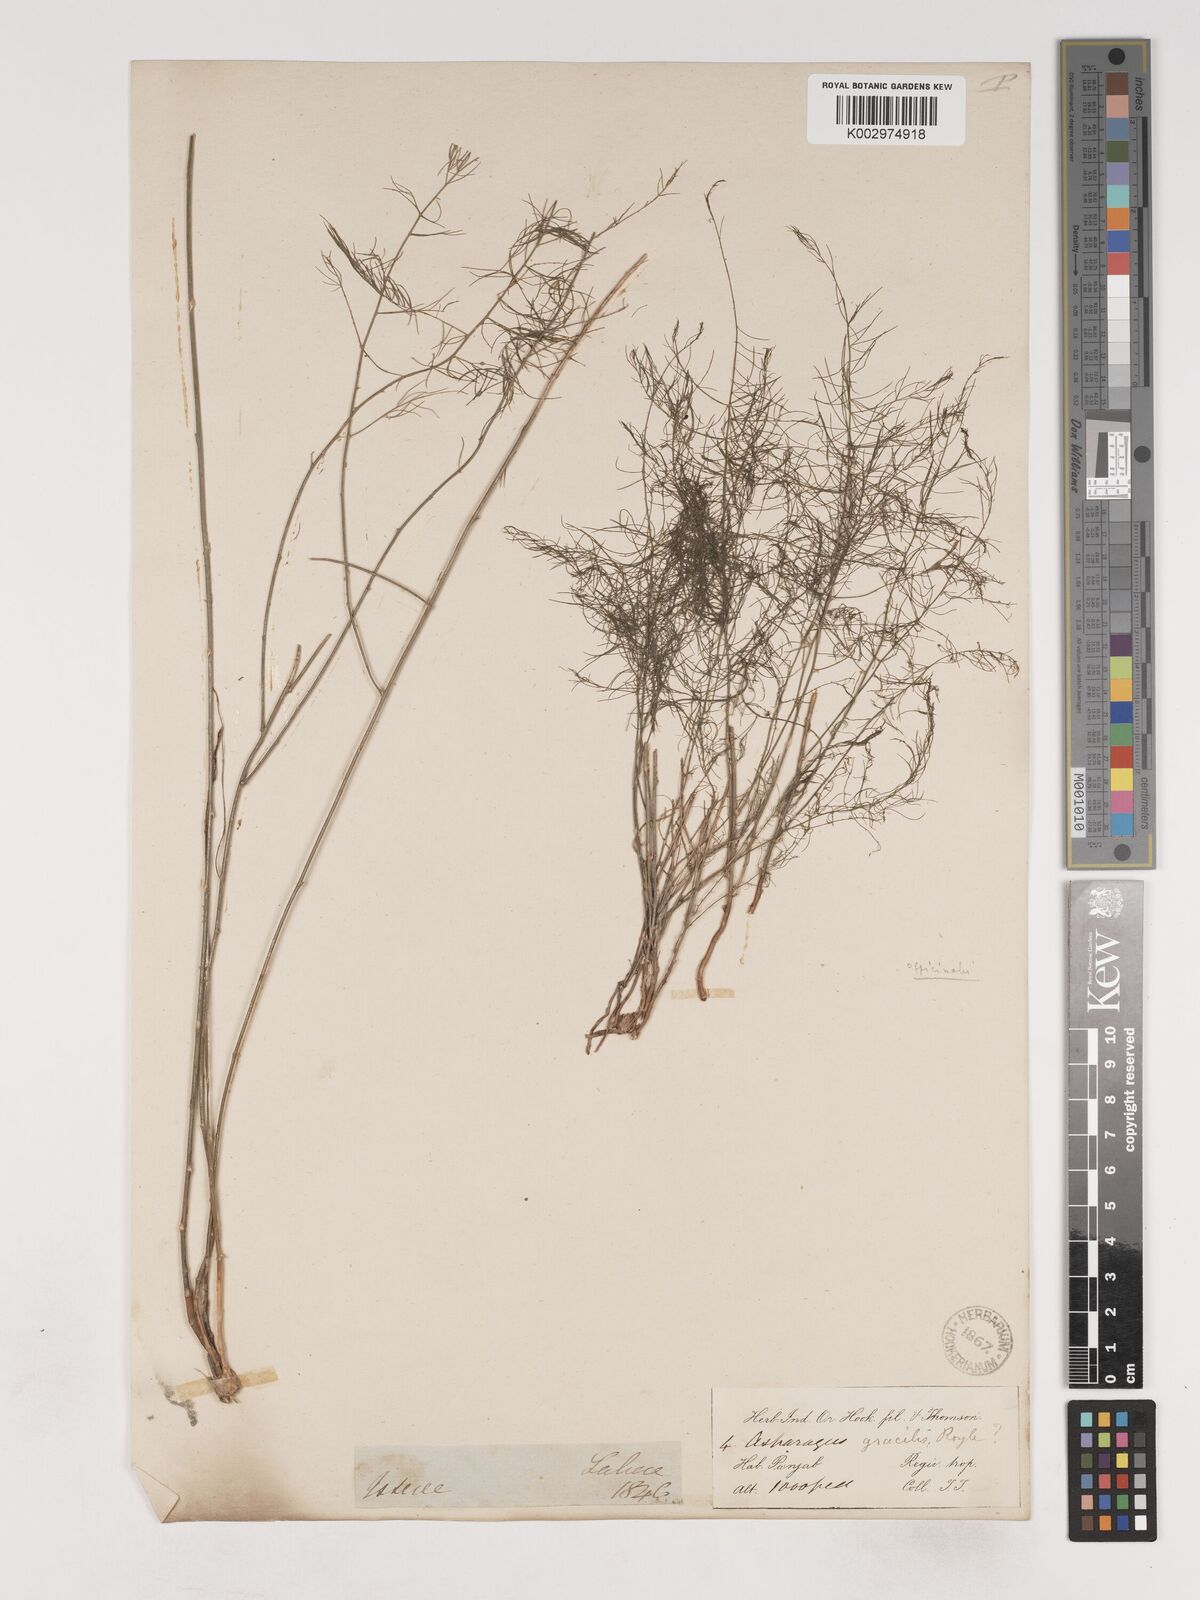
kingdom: Plantae
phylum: Tracheophyta
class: Liliopsida
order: Asparagales
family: Asparagaceae
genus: Asparagus
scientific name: Asparagus officinalis
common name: Garden asparagus
